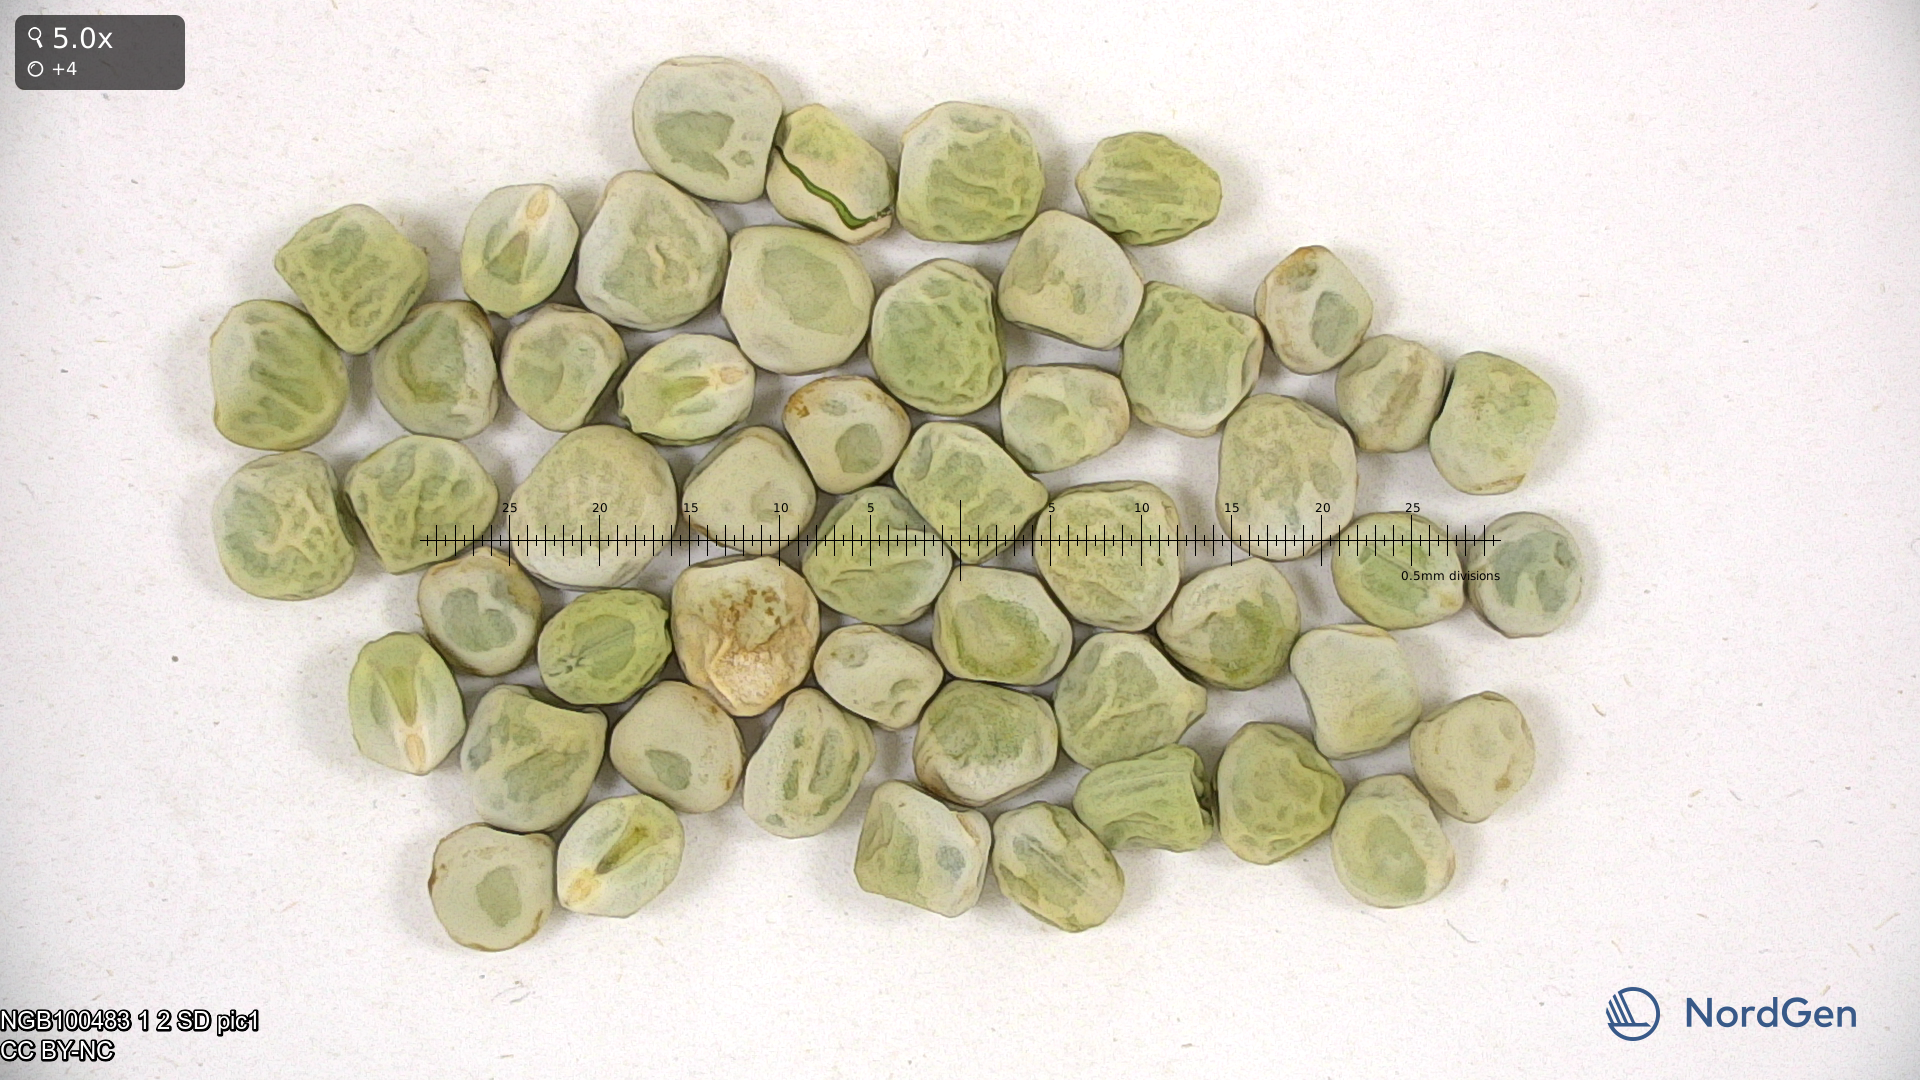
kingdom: Plantae
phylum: Tracheophyta
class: Magnoliopsida
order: Fabales
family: Fabaceae
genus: Lathyrus
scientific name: Lathyrus oleraceus
